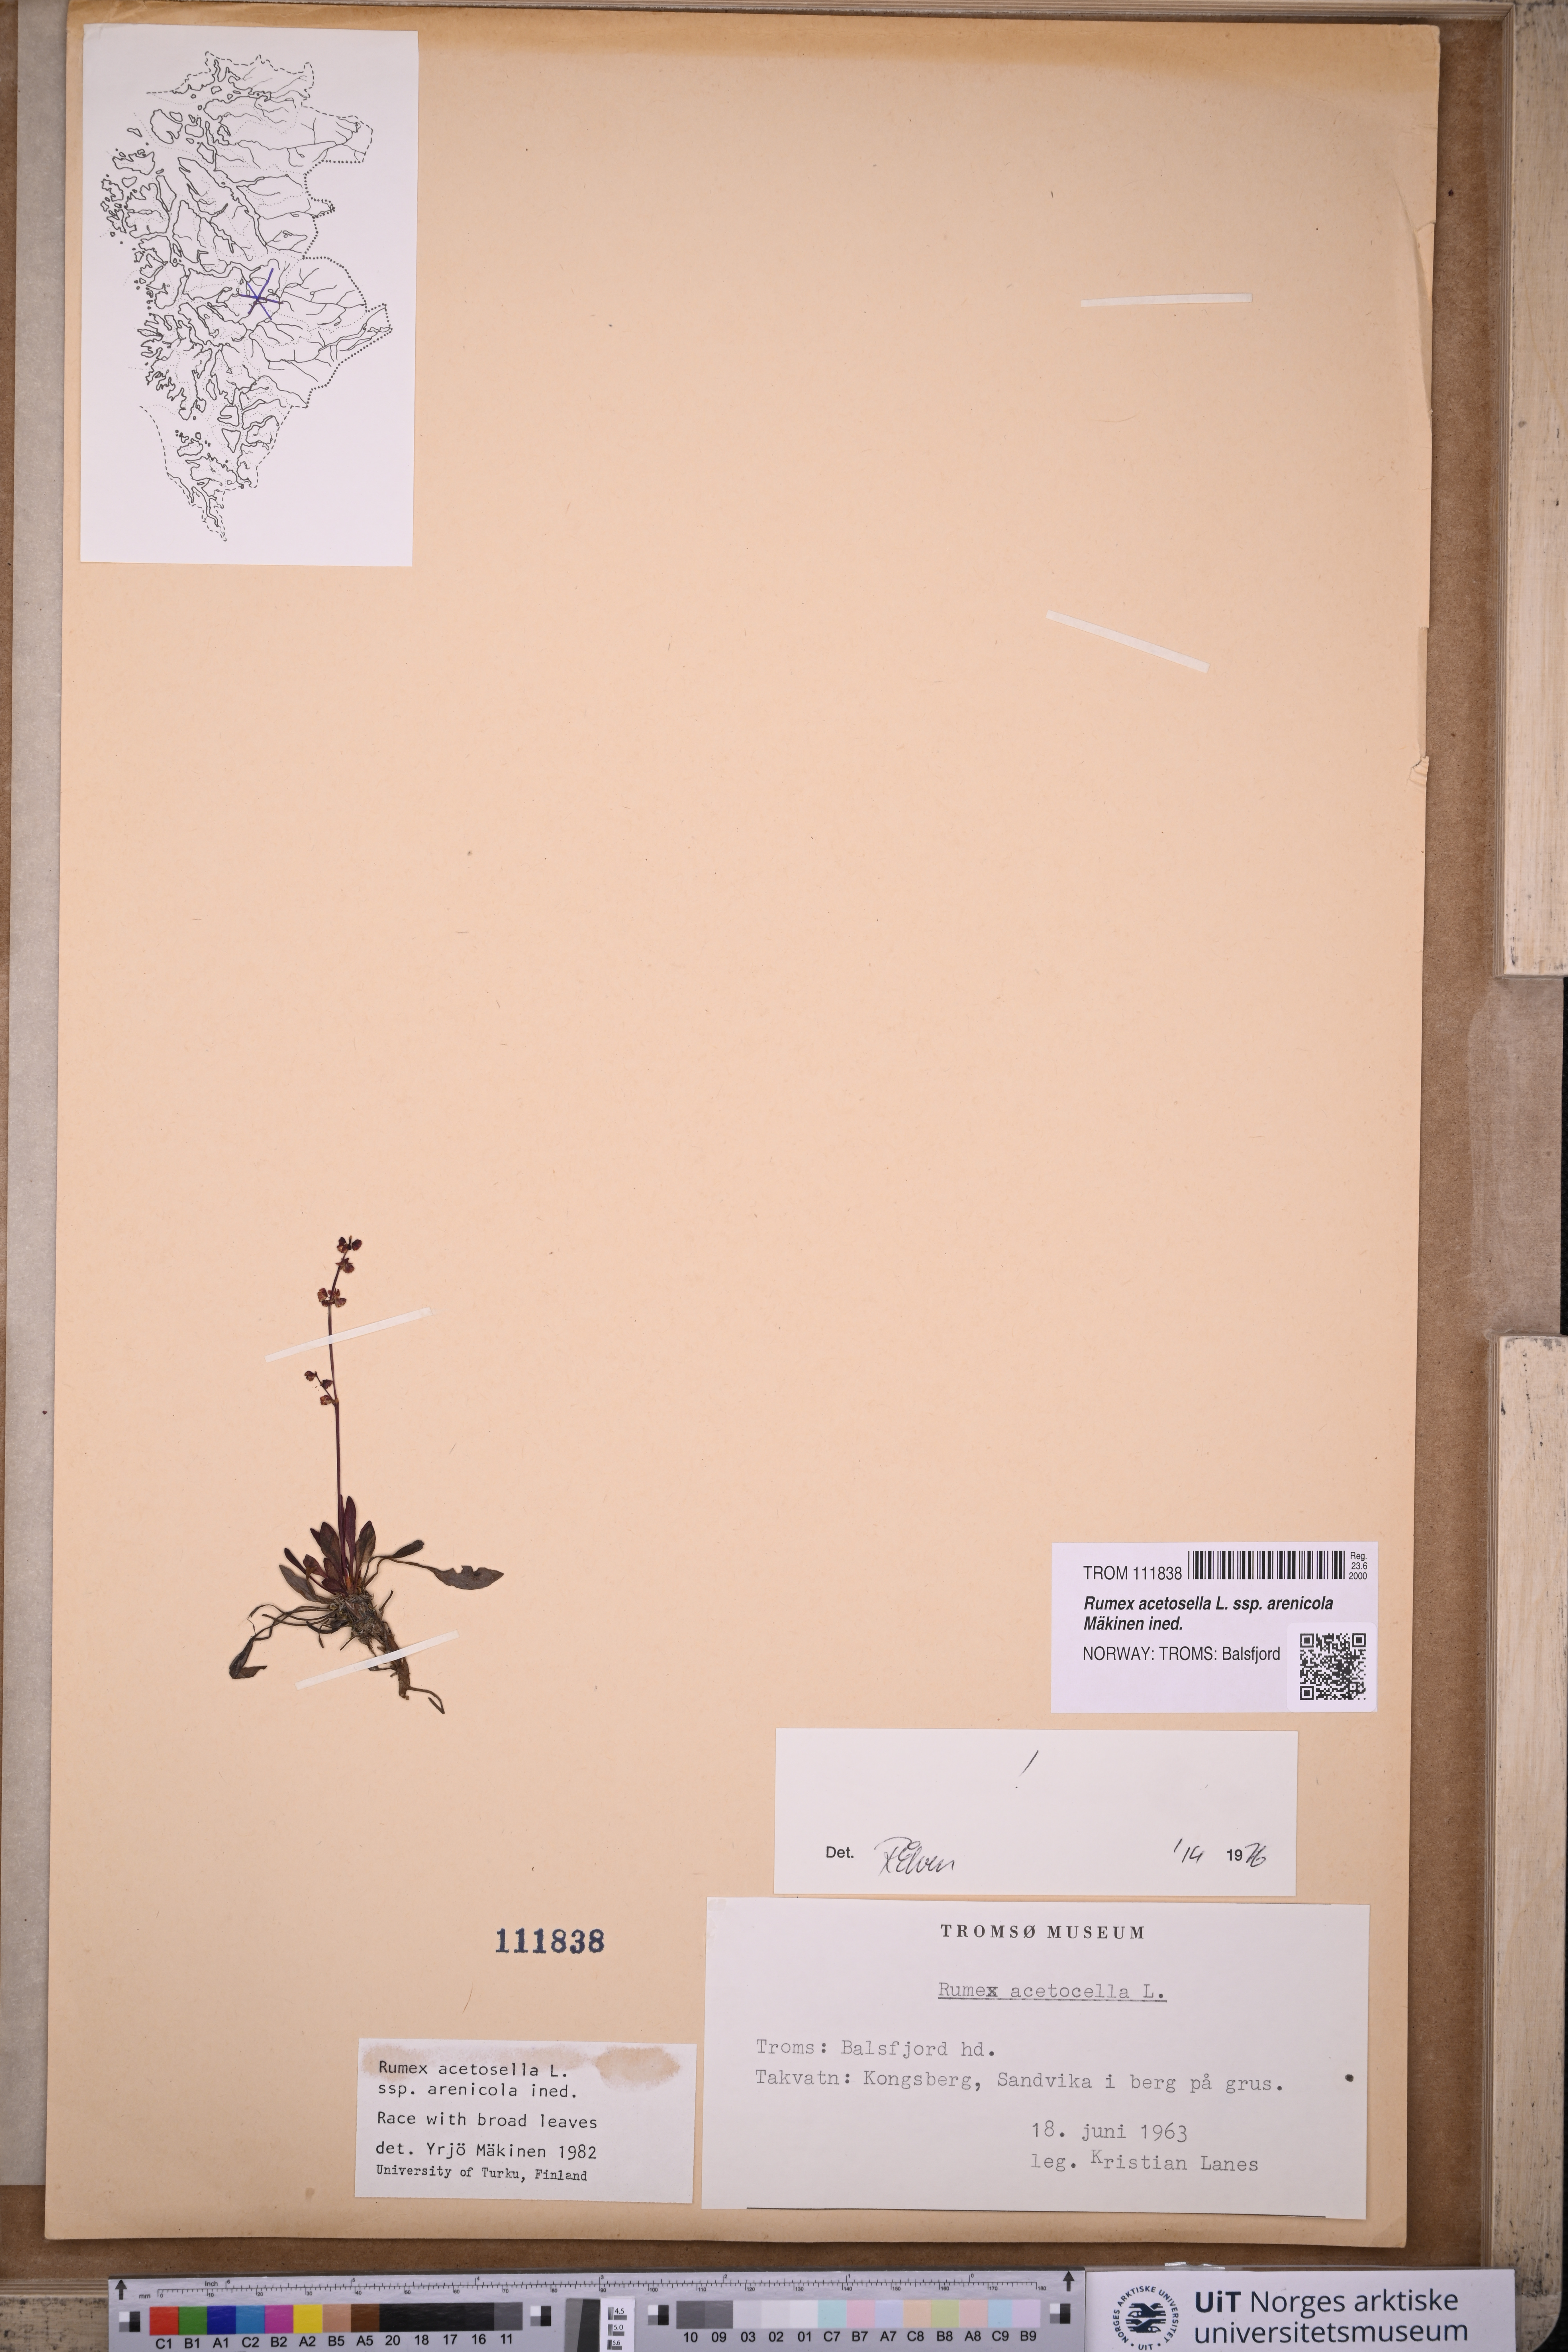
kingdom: Plantae
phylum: Tracheophyta
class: Magnoliopsida
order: Caryophyllales
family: Polygonaceae
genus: Rumex
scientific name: Rumex acetosella
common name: Common sheep sorrel
